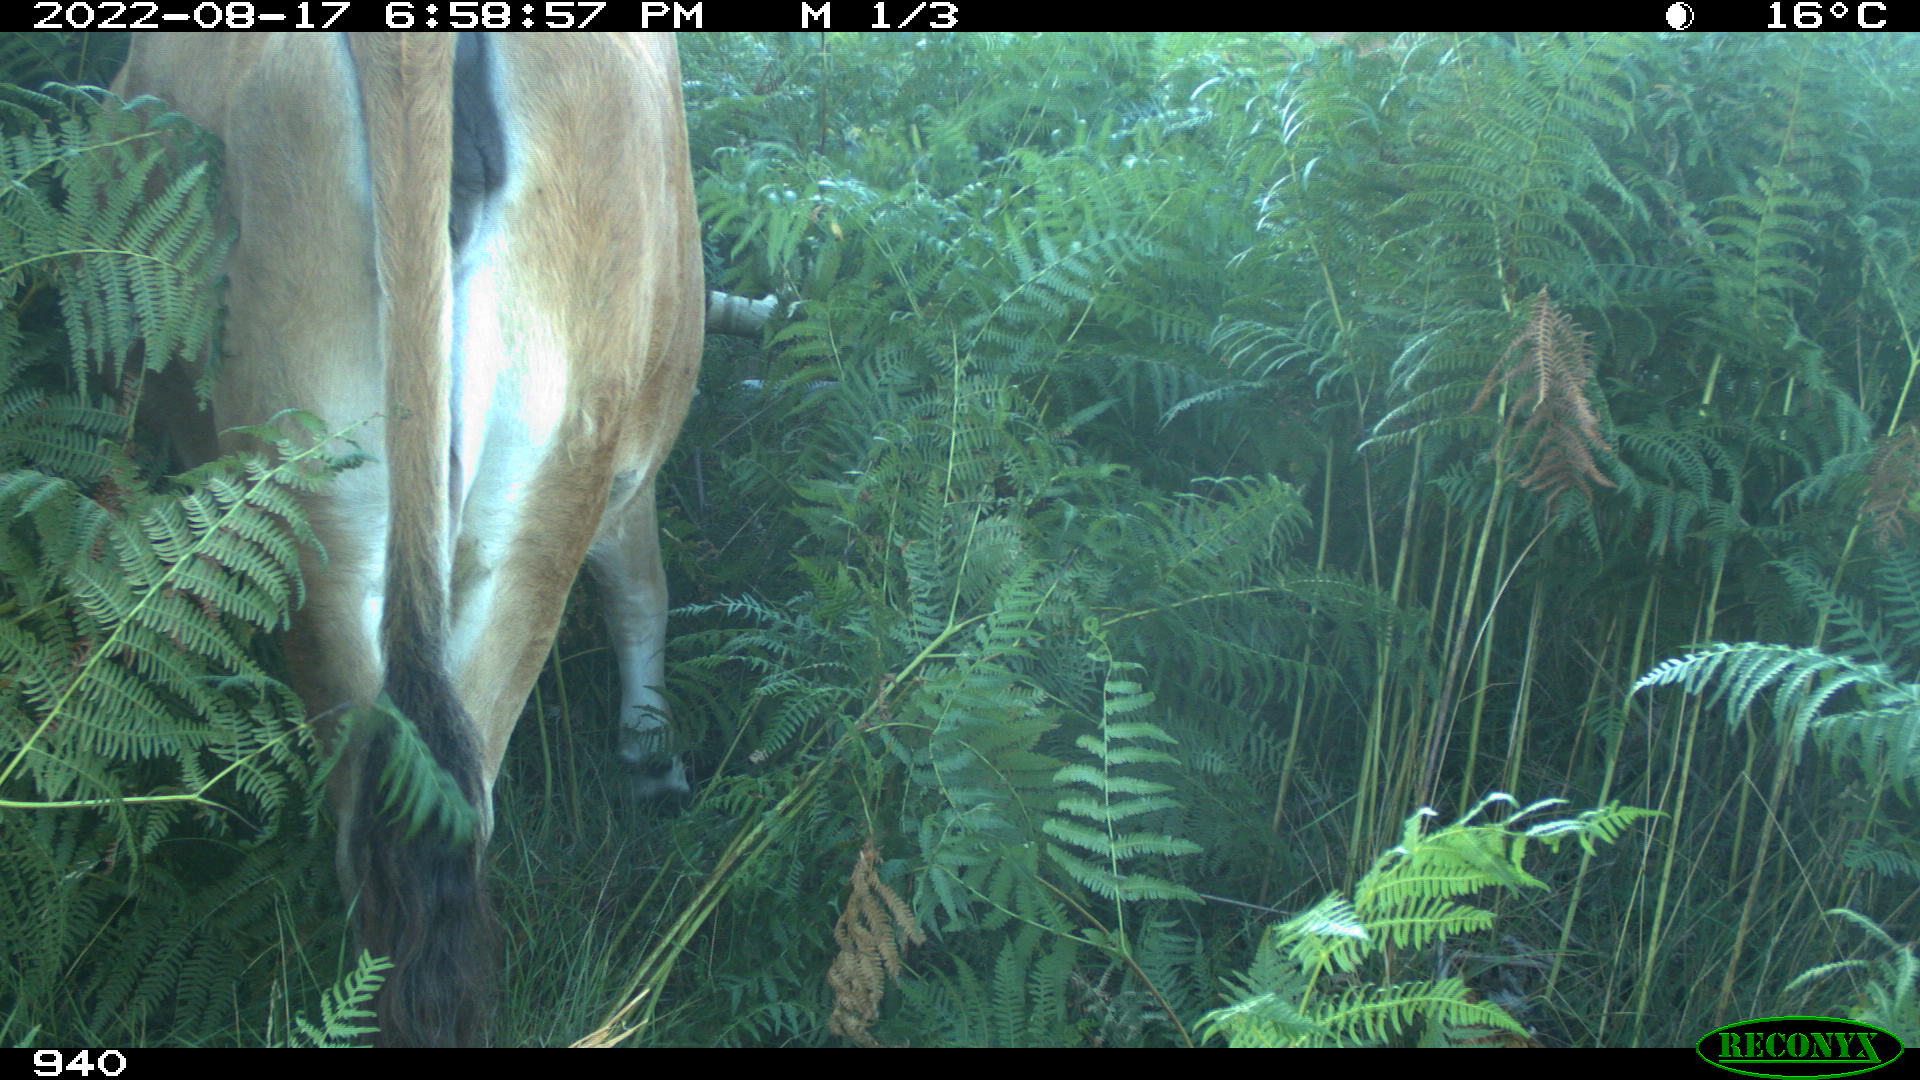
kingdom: Animalia
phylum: Chordata
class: Mammalia
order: Artiodactyla
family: Bovidae
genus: Bos
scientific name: Bos taurus
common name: Domesticated cattle
